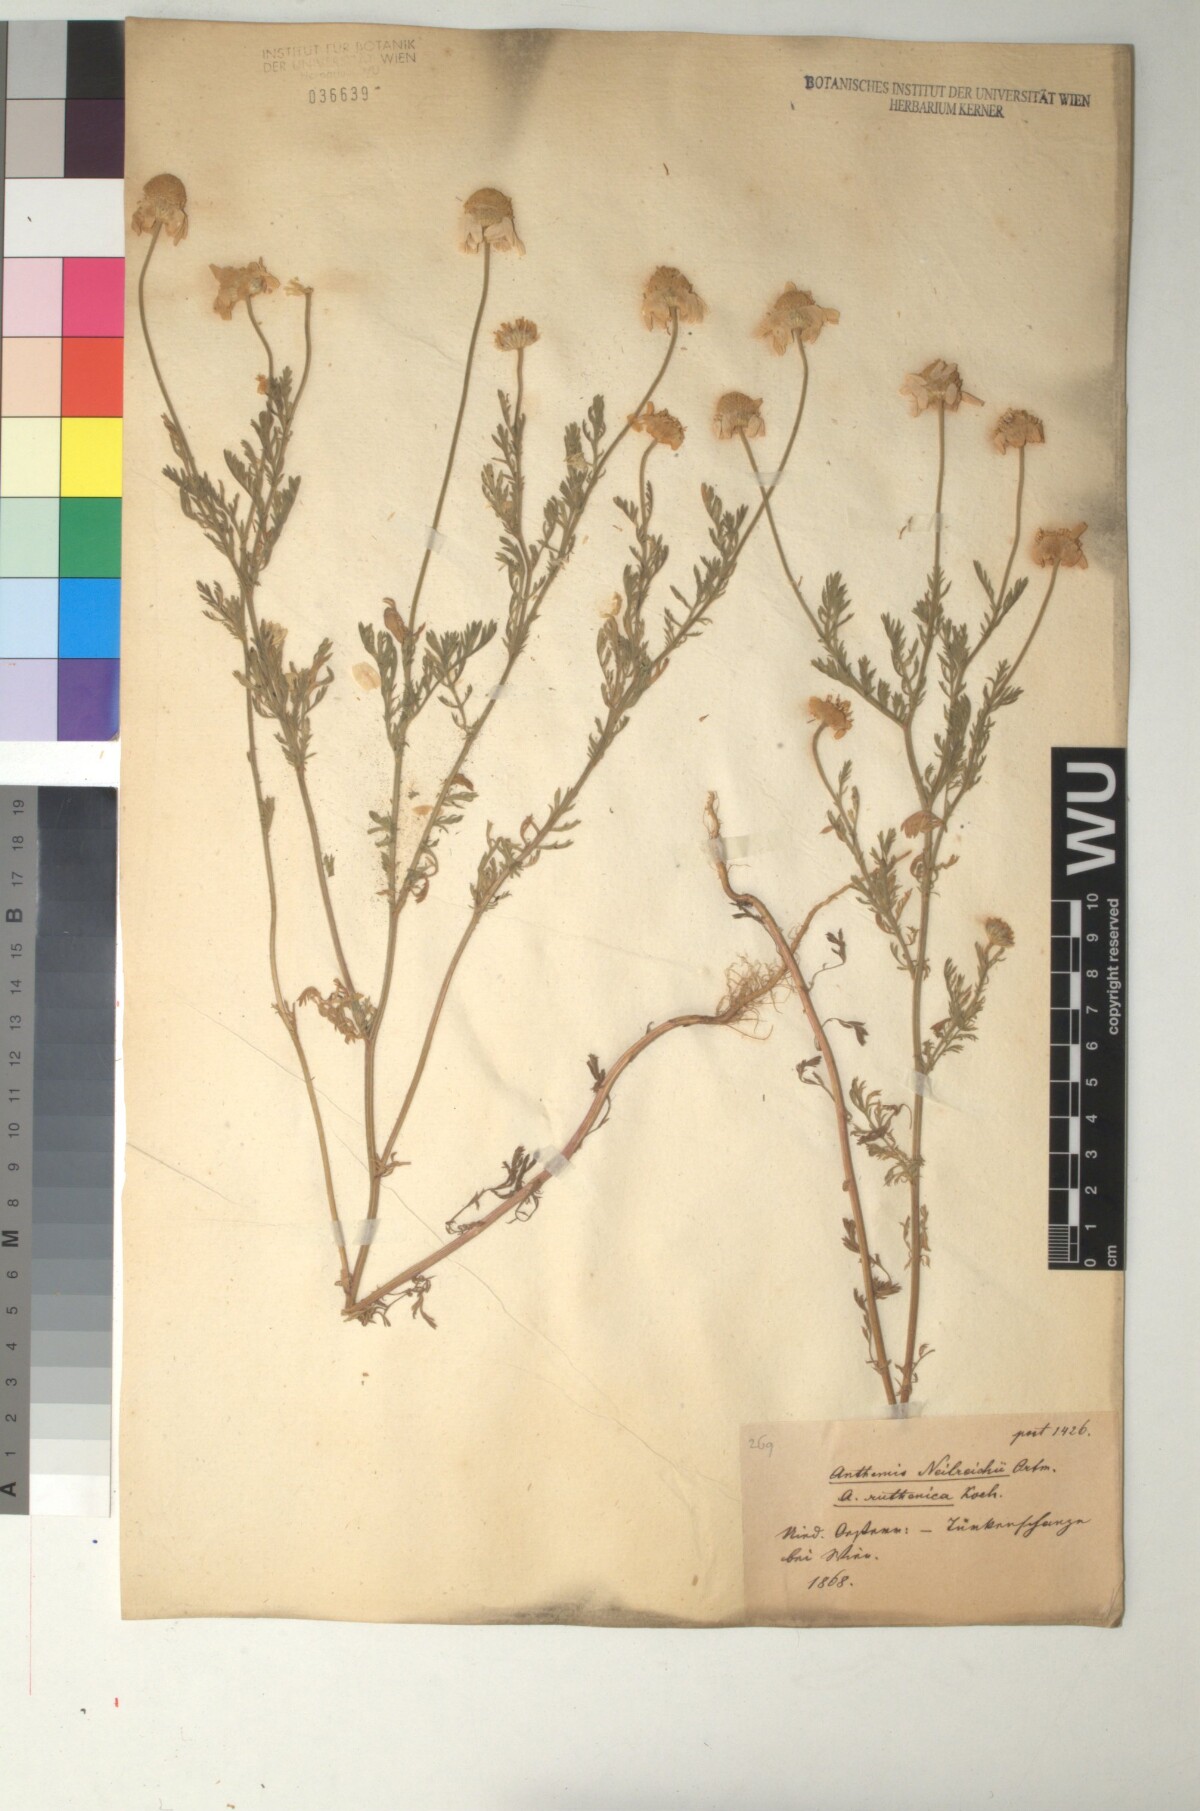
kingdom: Plantae
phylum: Tracheophyta
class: Magnoliopsida
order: Asterales
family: Asteraceae
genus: Anthemis
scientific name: Anthemis ruthenica
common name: Eastern chamomile
